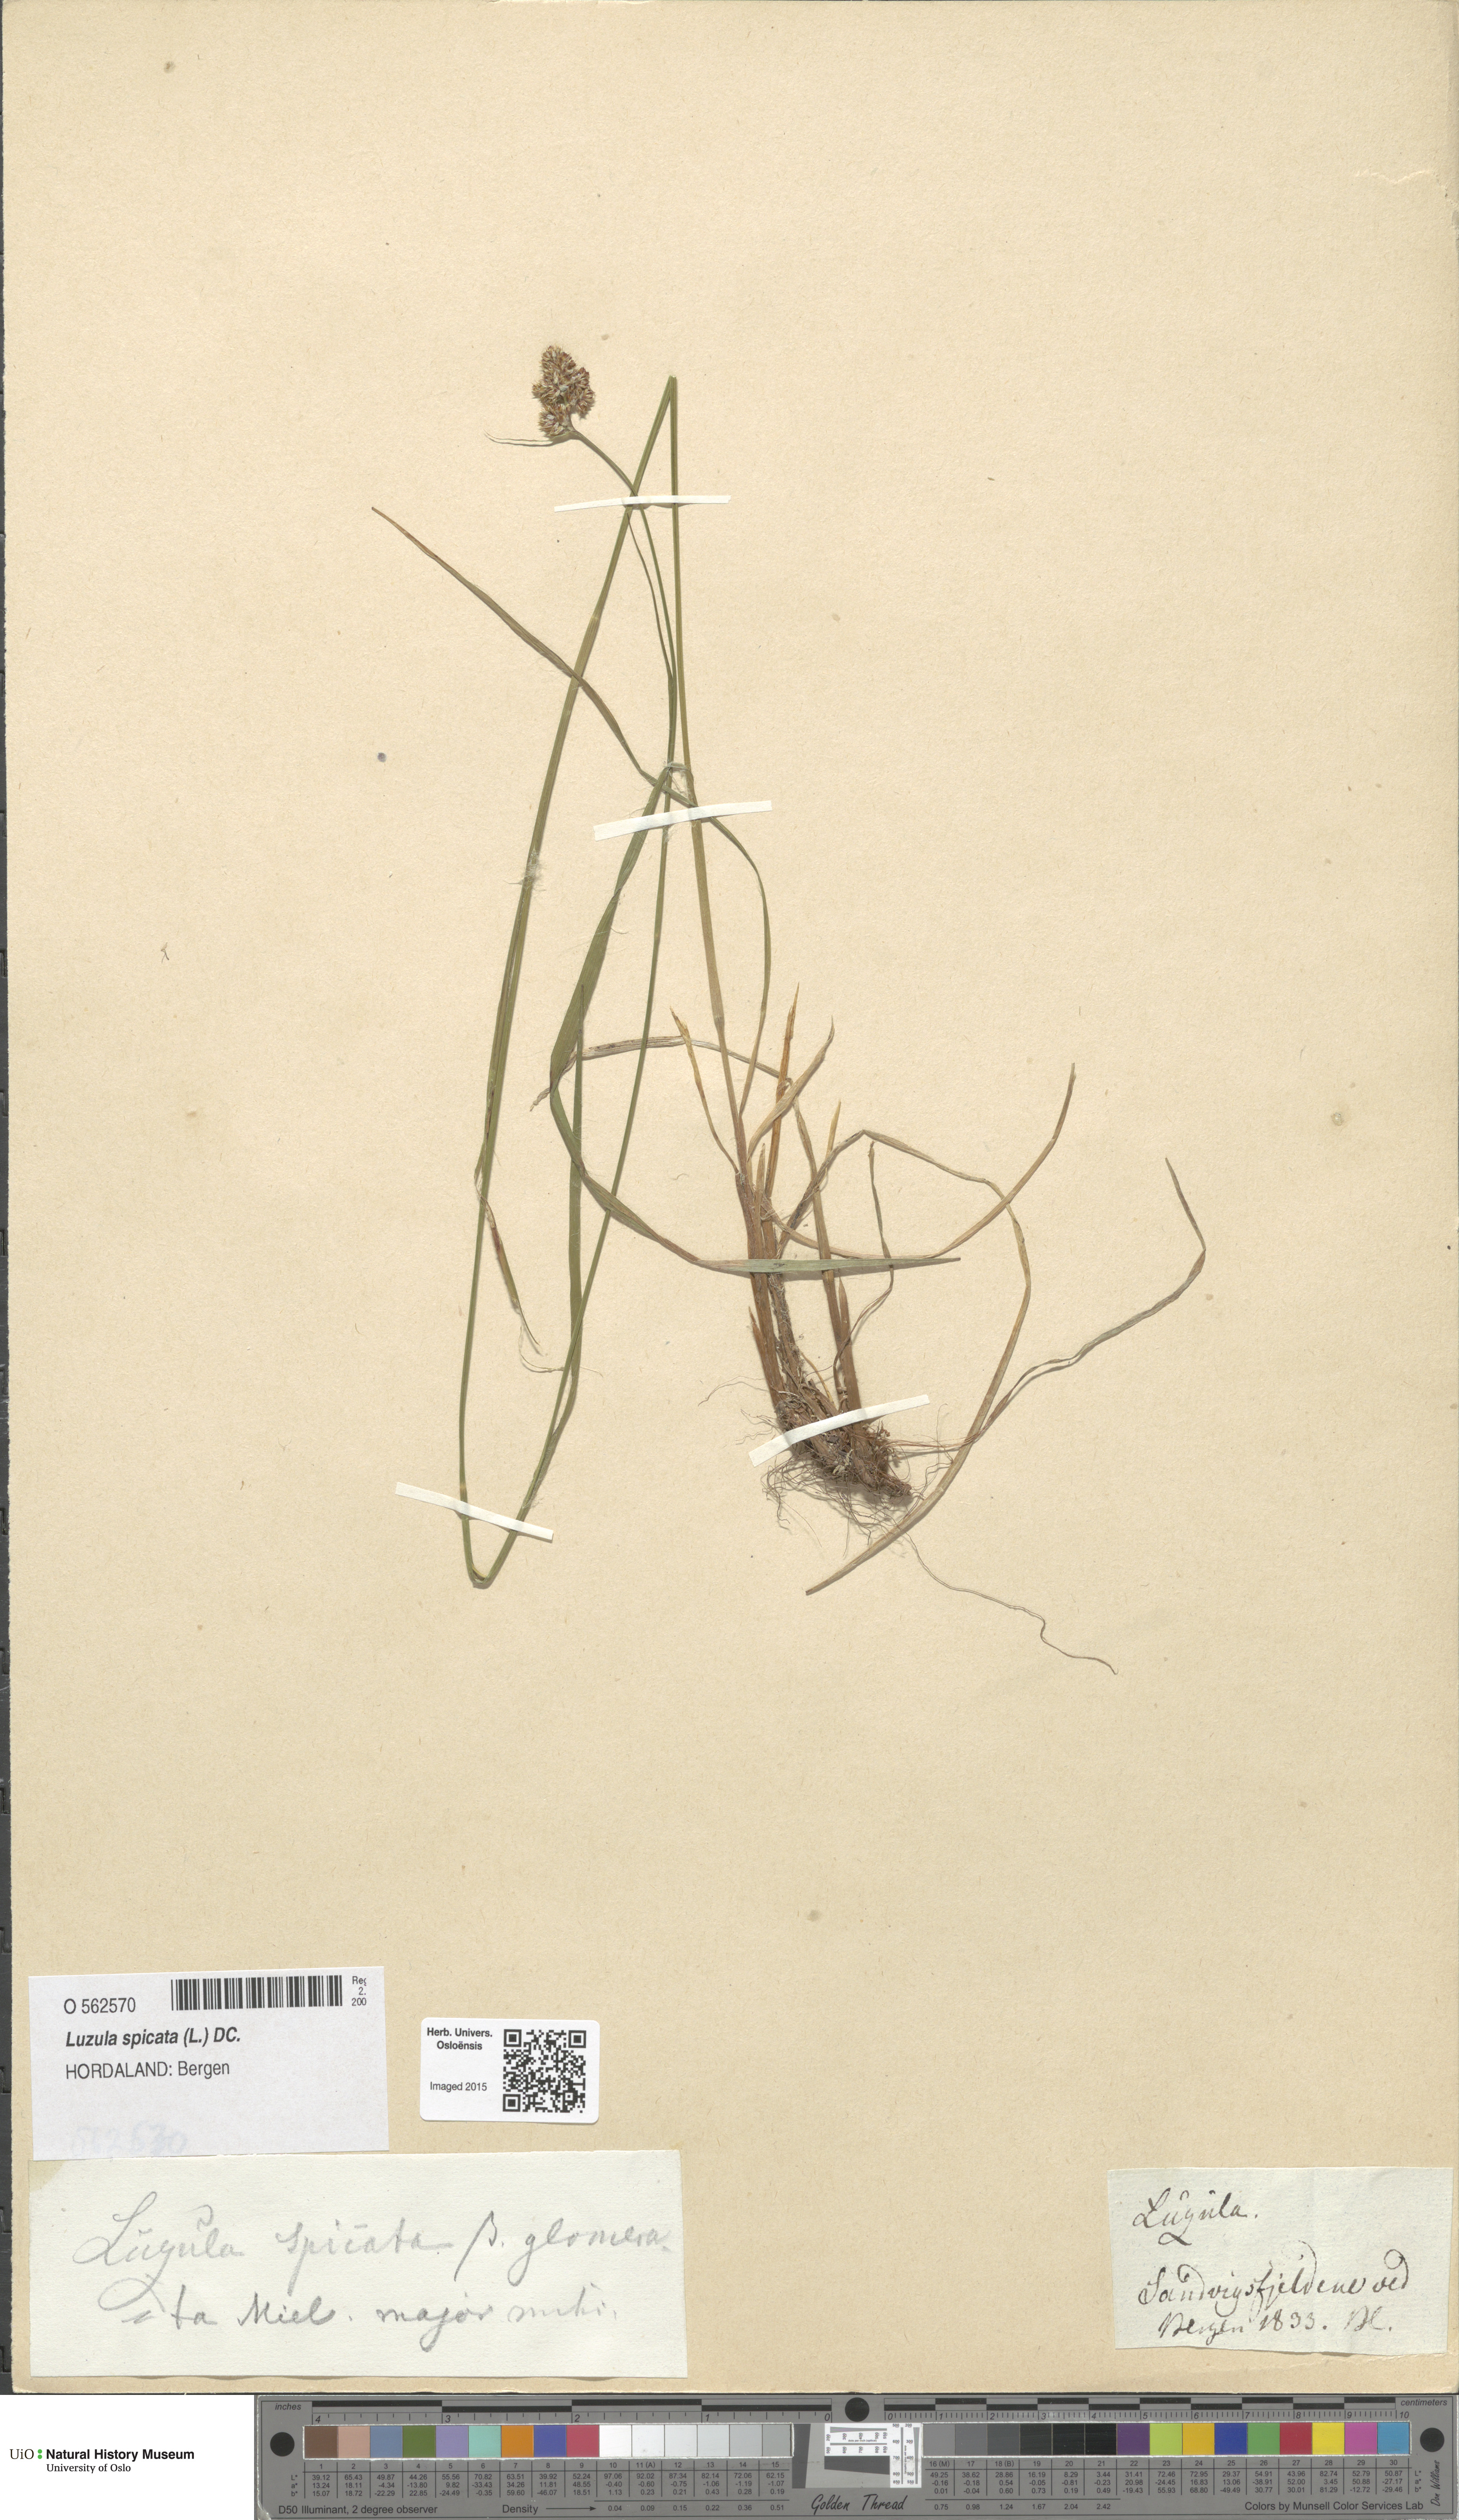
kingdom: Plantae
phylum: Tracheophyta
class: Liliopsida
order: Poales
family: Juncaceae
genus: Luzula
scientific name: Luzula spicata
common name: Spiked wood-rush
